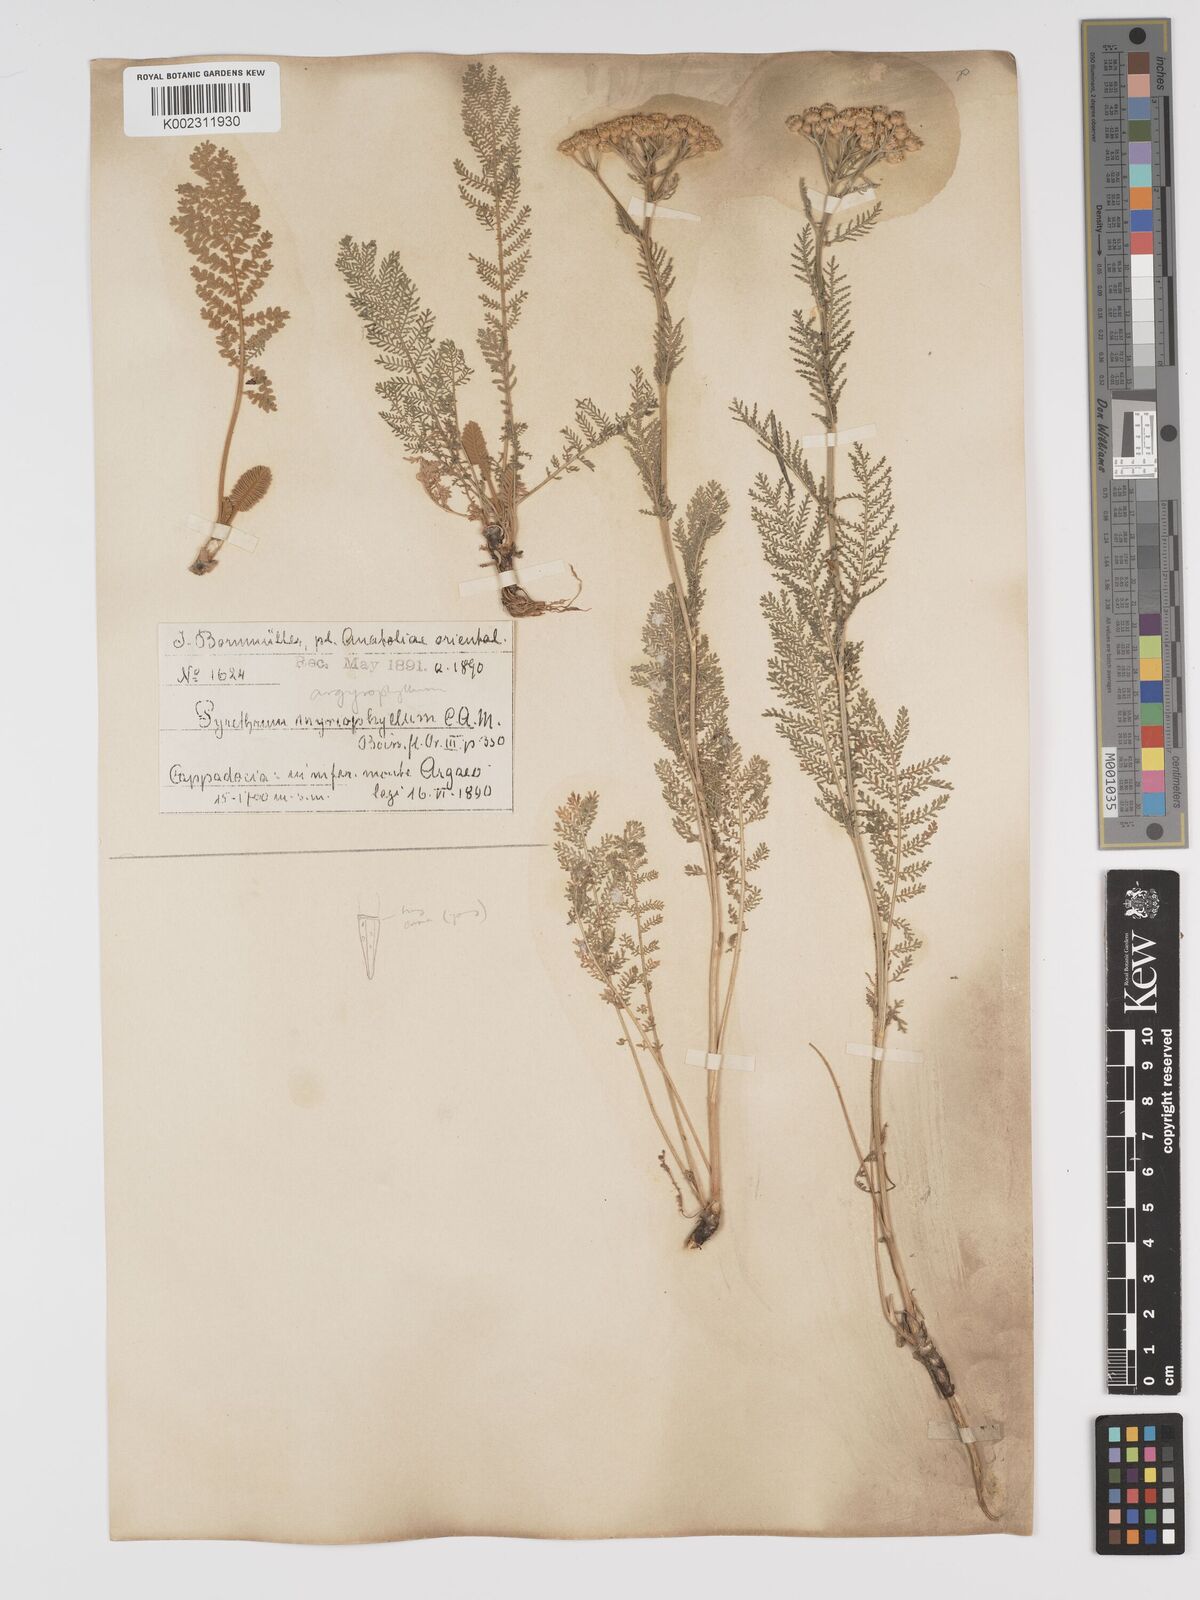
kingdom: Plantae
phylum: Tracheophyta
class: Magnoliopsida
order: Asterales
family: Asteraceae
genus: Tanacetum
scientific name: Tanacetum polycephalum
